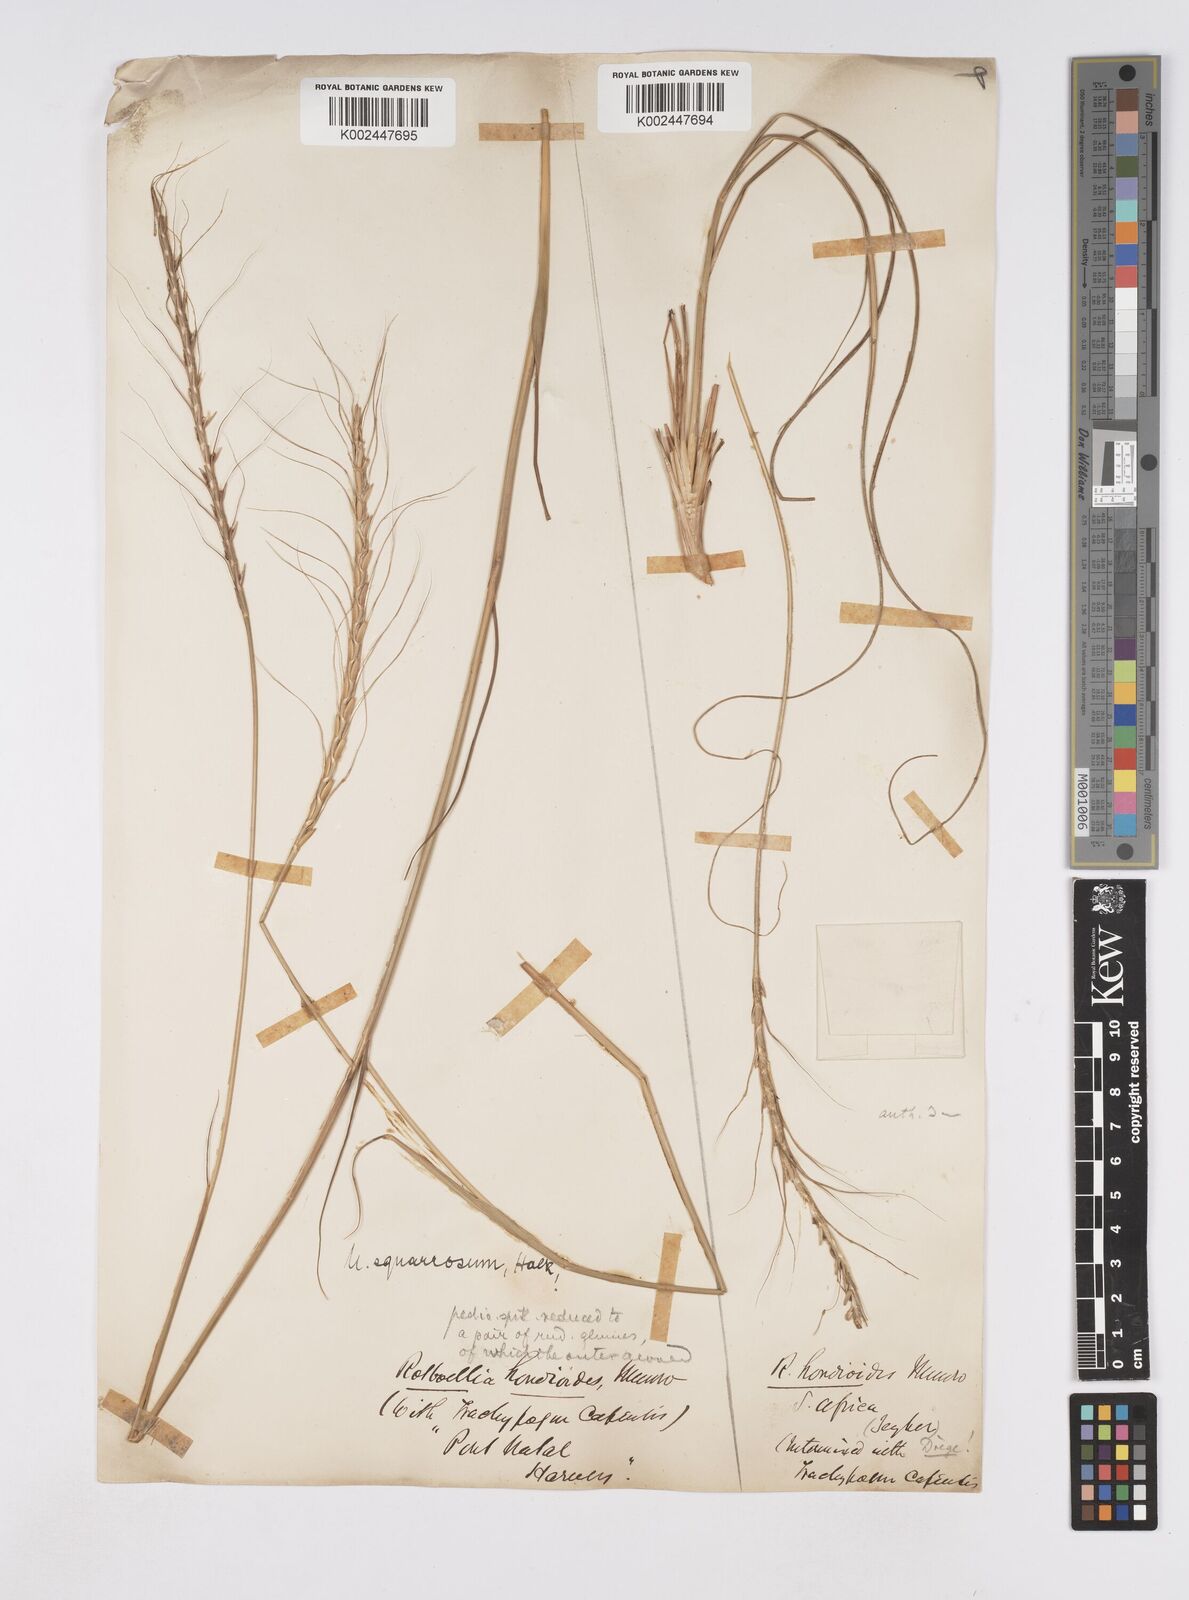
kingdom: Plantae
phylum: Tracheophyta
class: Liliopsida
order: Poales
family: Poaceae
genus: Urelytrum
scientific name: Urelytrum agropyroides
